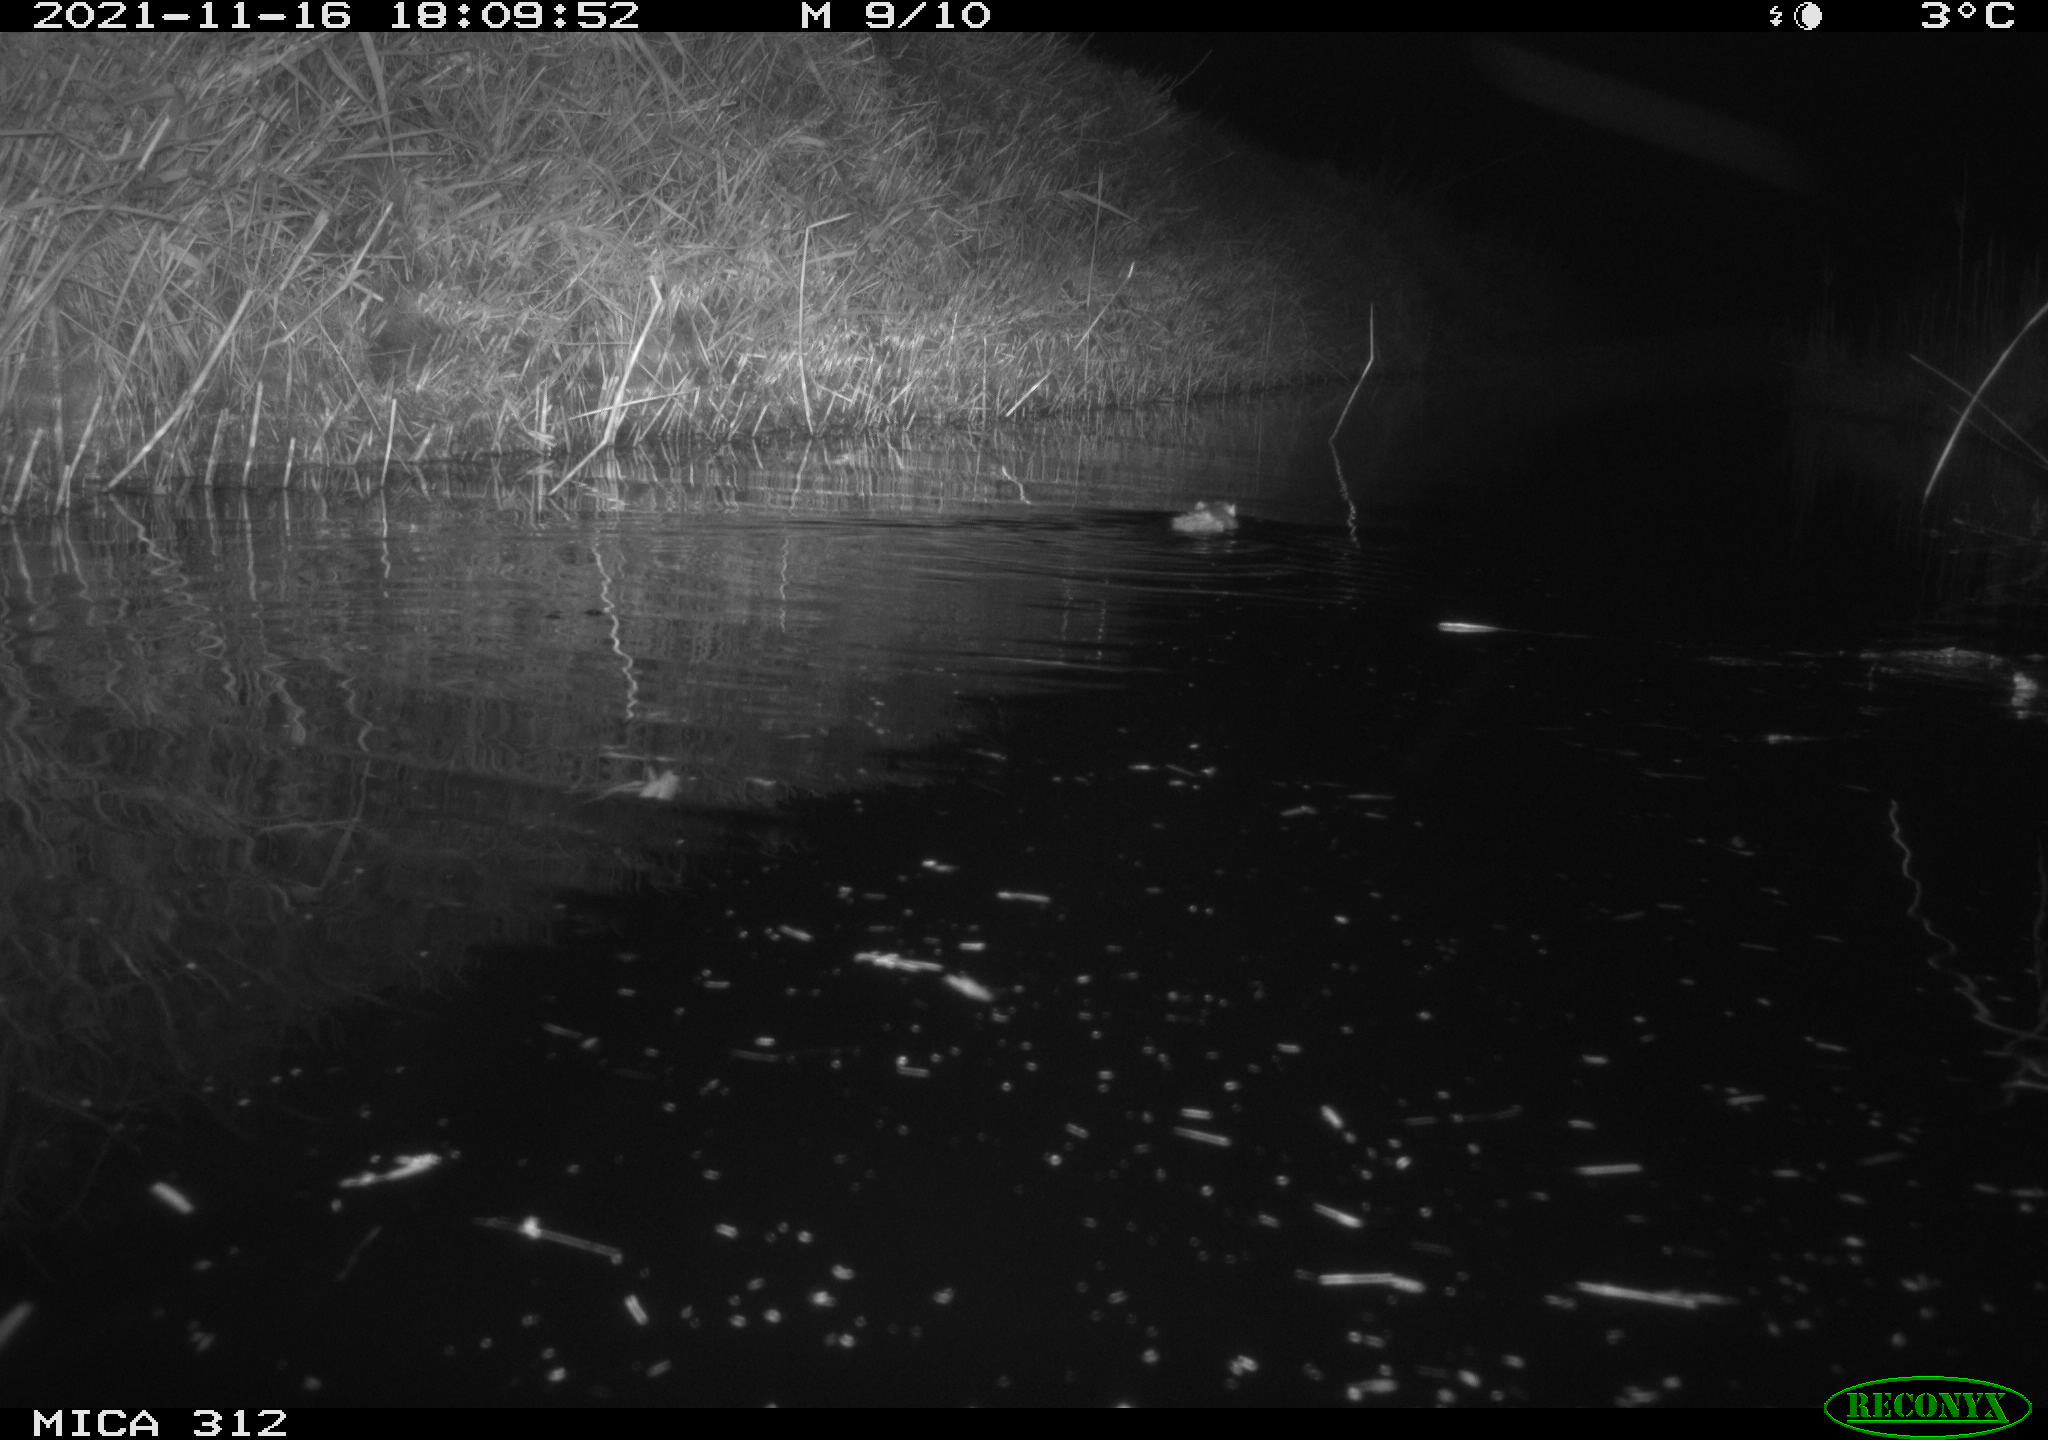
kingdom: Animalia
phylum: Chordata
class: Mammalia
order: Rodentia
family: Muridae
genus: Rattus
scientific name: Rattus norvegicus
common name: Brown rat
